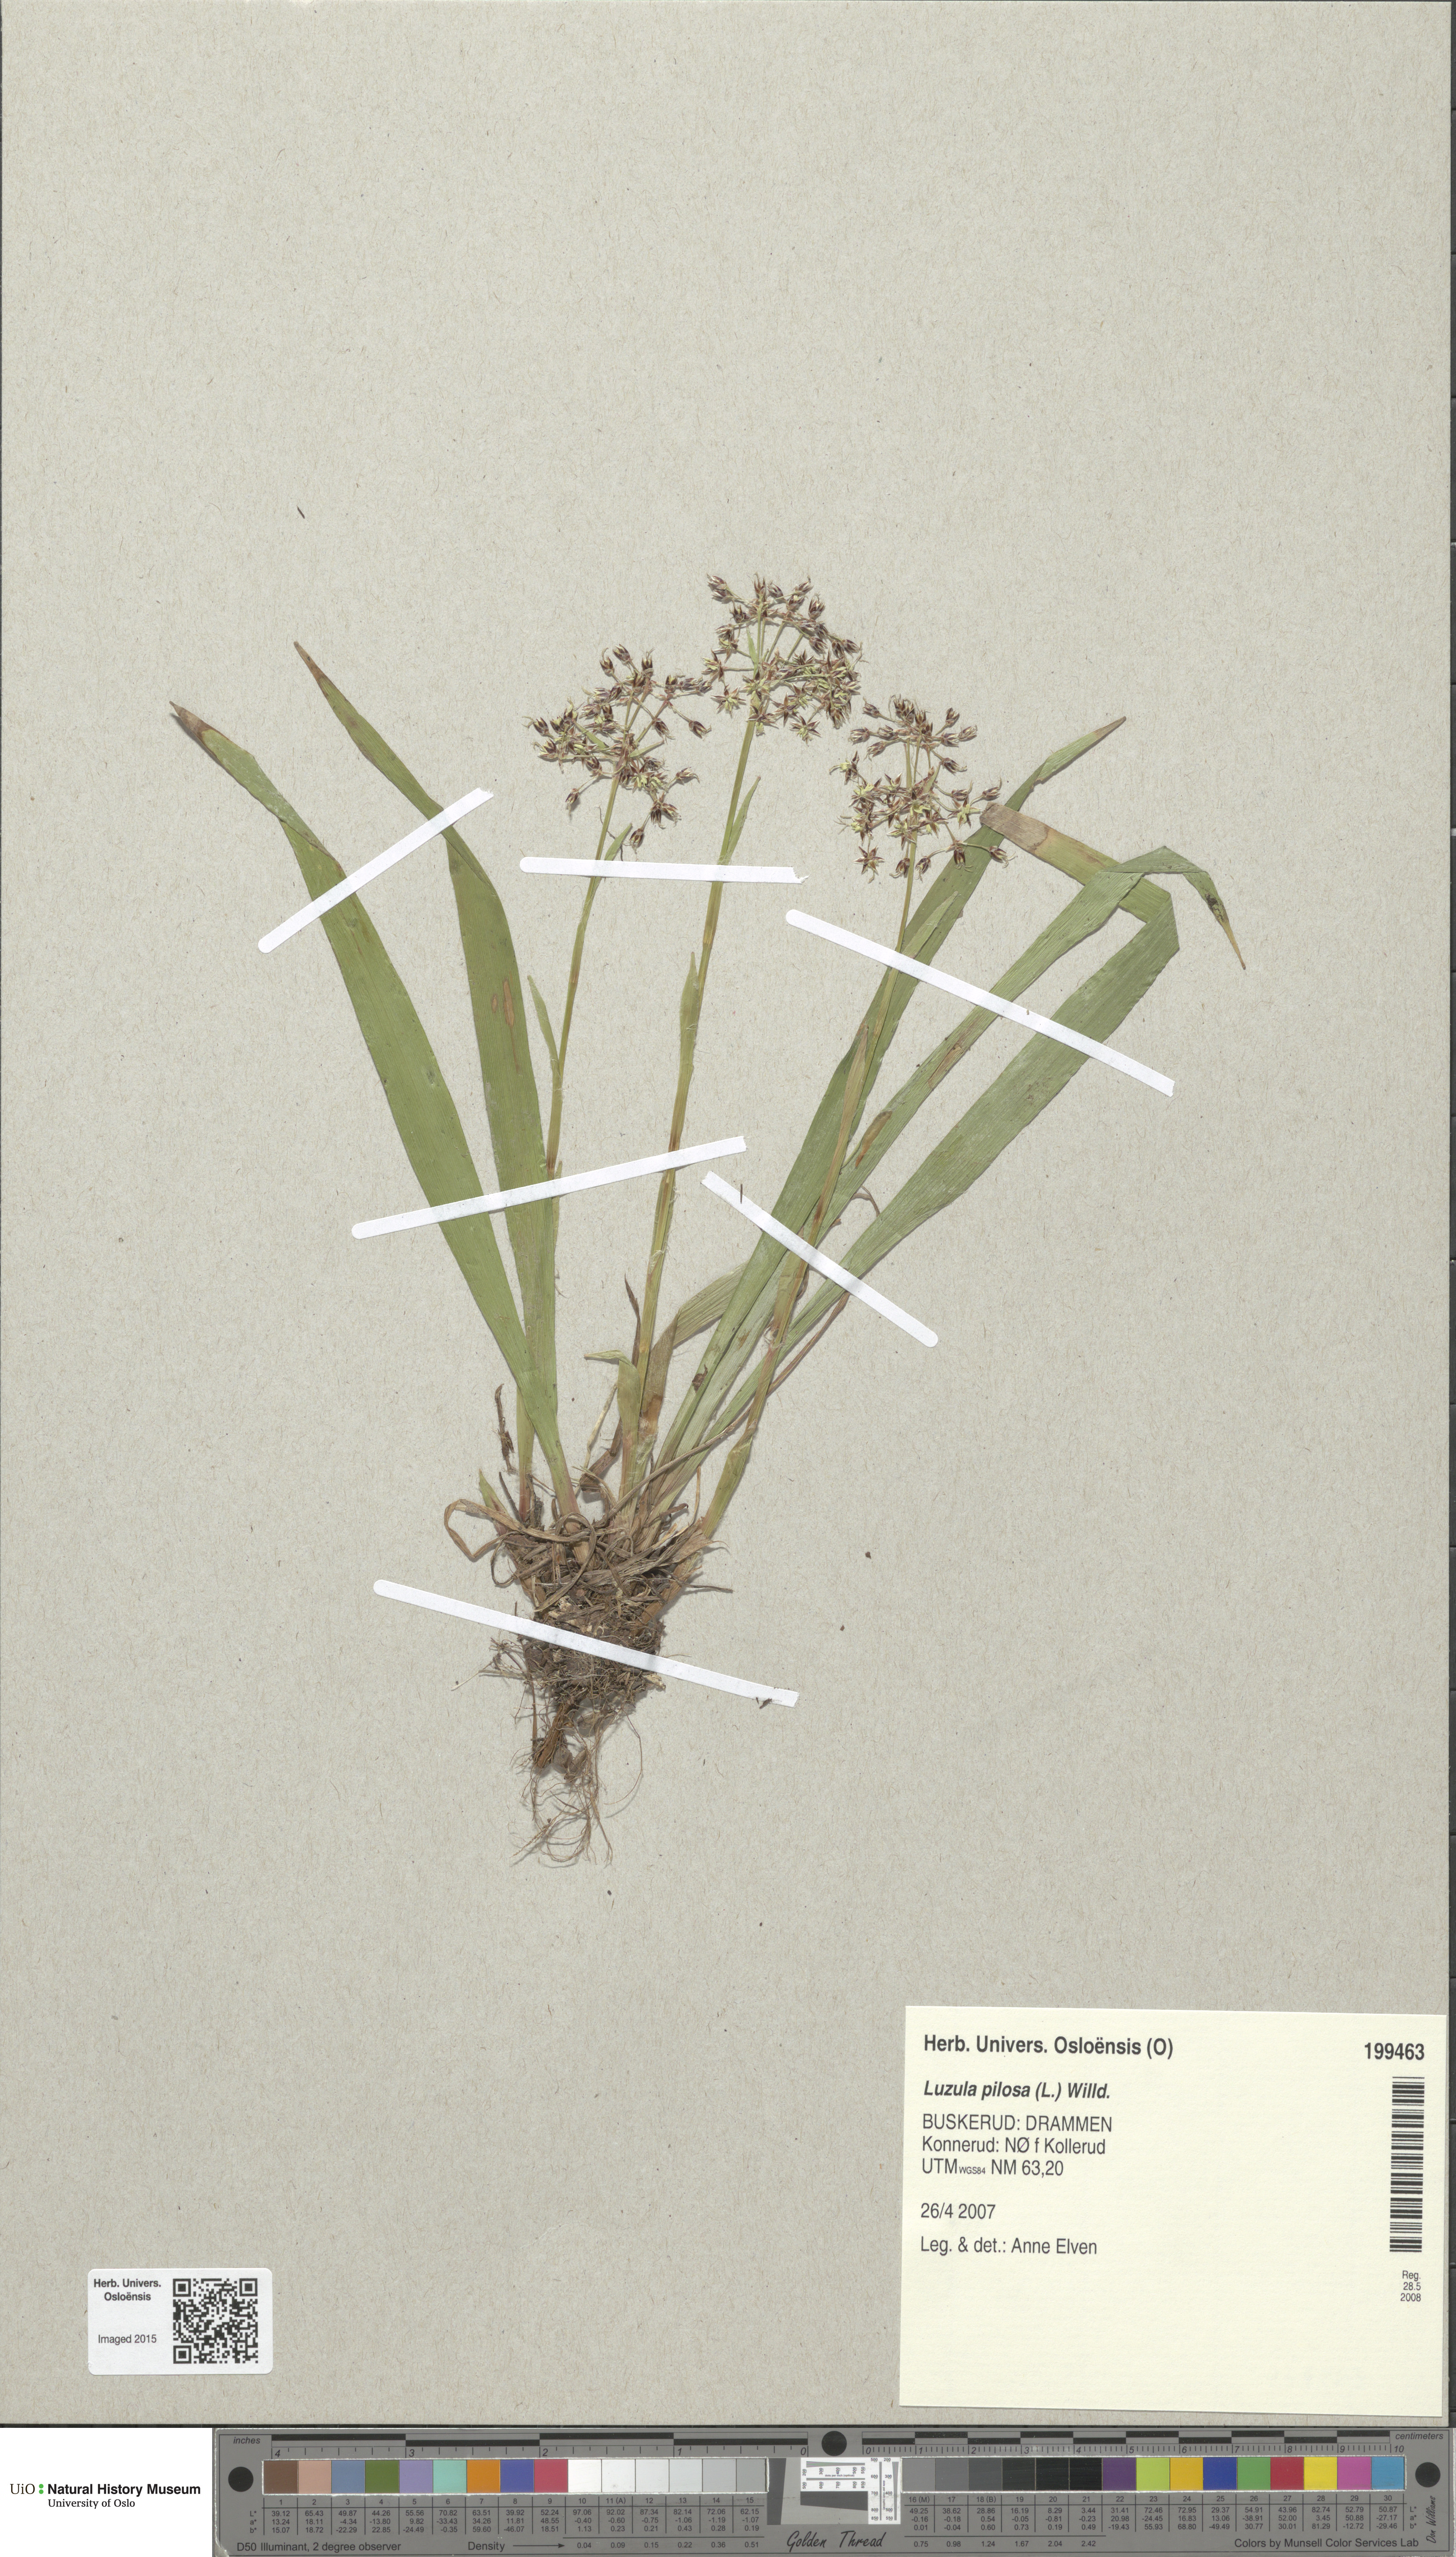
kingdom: Plantae
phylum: Tracheophyta
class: Liliopsida
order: Poales
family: Juncaceae
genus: Luzula
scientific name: Luzula pilosa
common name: Hairy wood-rush
